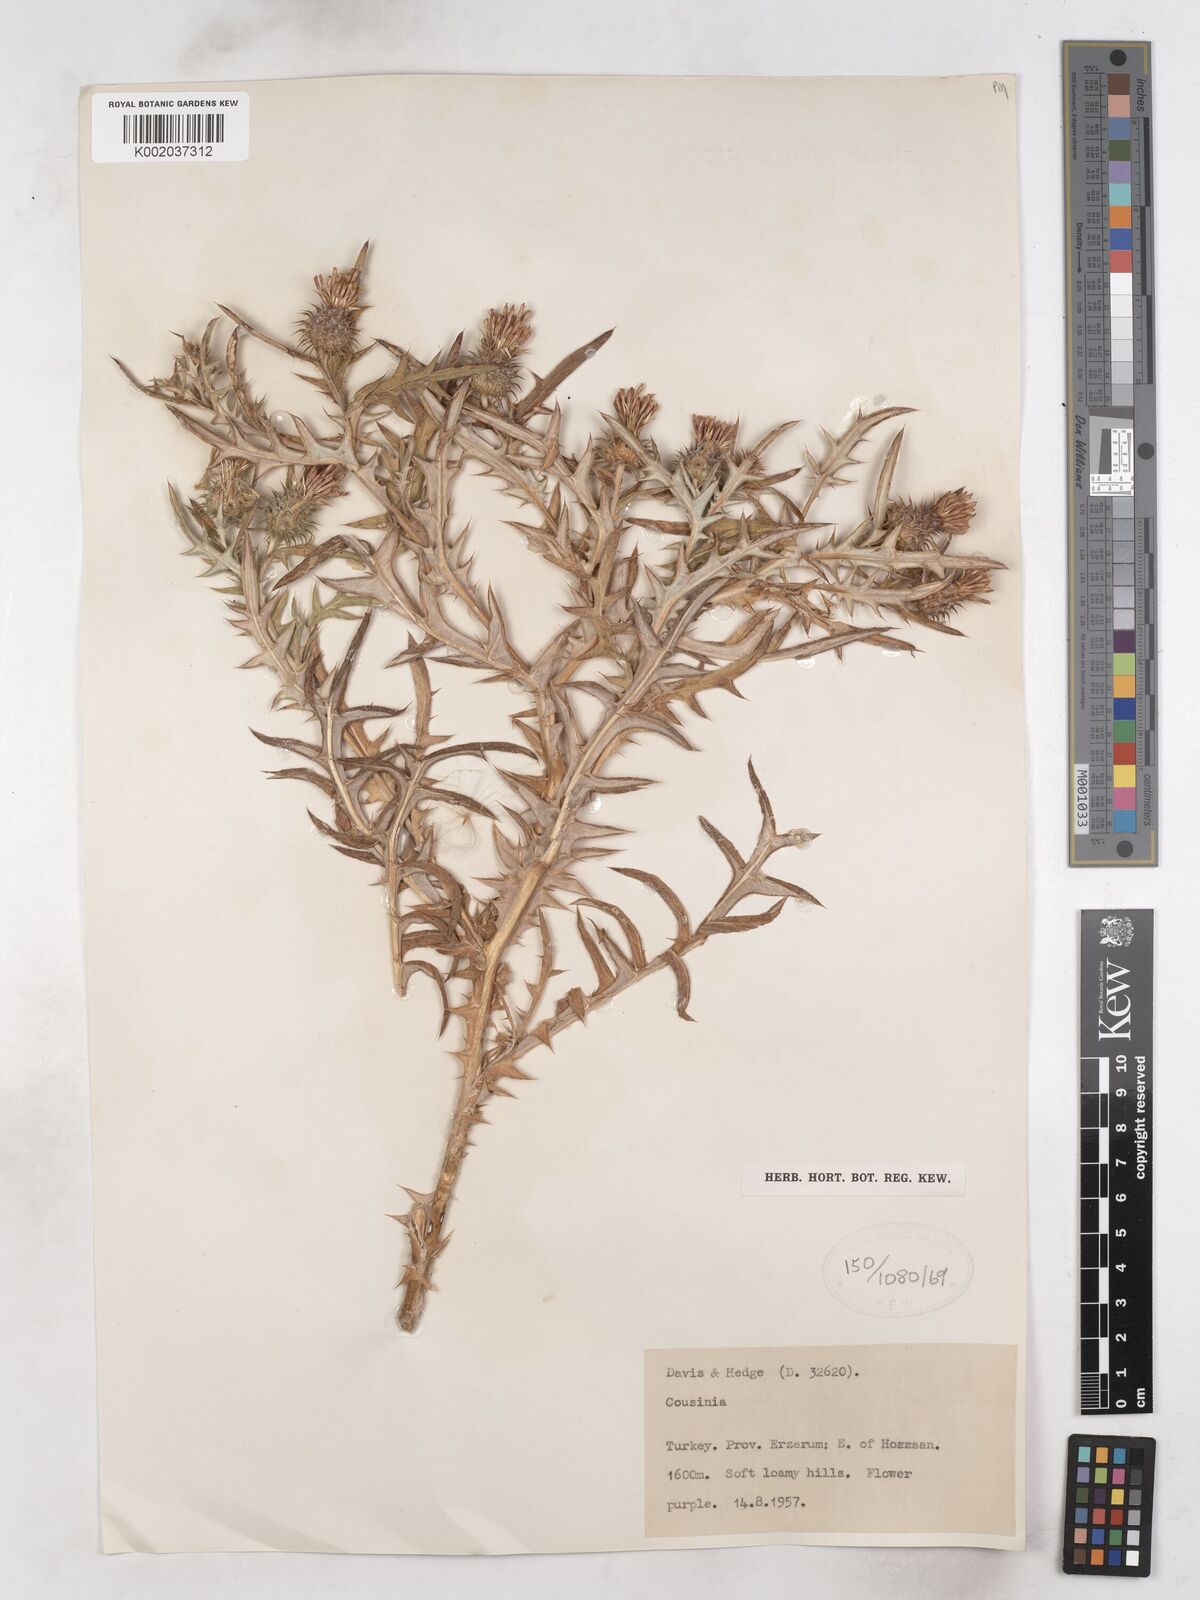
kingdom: Plantae
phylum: Tracheophyta
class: Magnoliopsida
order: Asterales
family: Asteraceae
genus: Cousinia
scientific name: Cousinia brachyptera
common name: Short-winged cousinia
